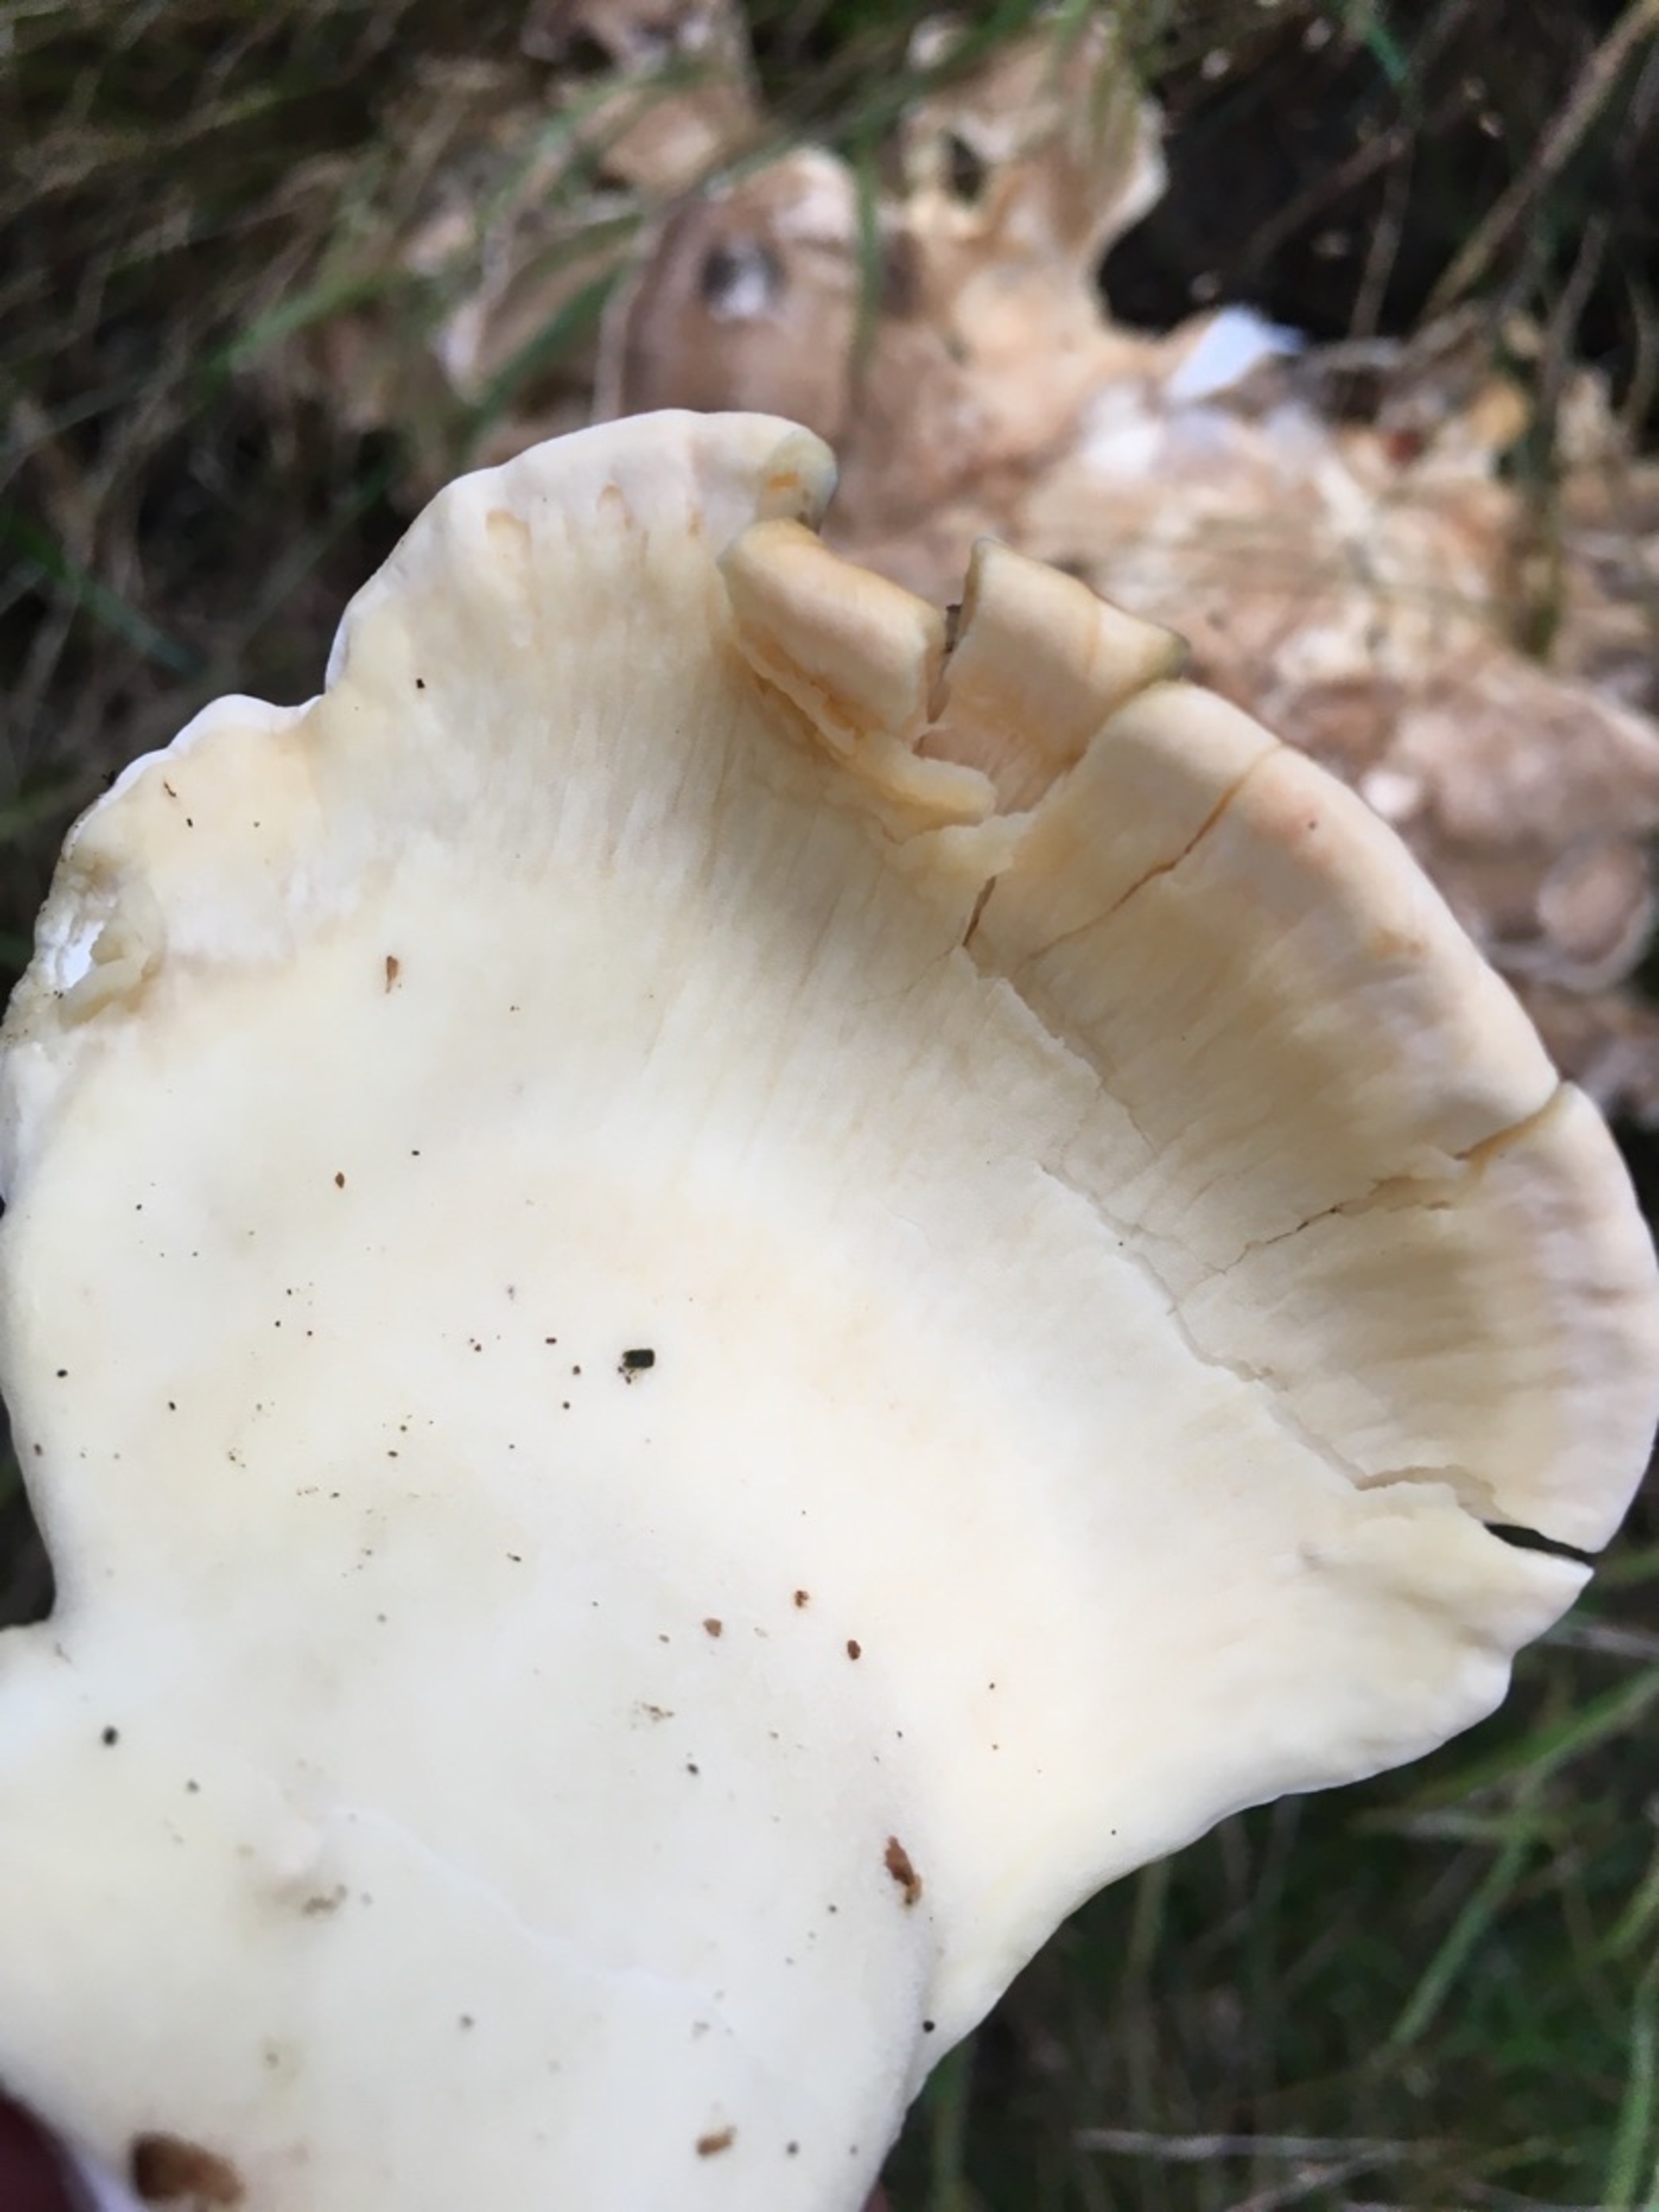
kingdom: Fungi
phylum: Basidiomycota
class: Agaricomycetes
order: Polyporales
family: Meripilaceae
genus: Meripilus
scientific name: Meripilus giganteus
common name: Kæmpeporesvamp
